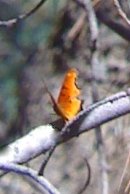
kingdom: Animalia
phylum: Arthropoda
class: Insecta
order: Lepidoptera
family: Nymphalidae
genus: Polygonia
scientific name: Polygonia haroldi
